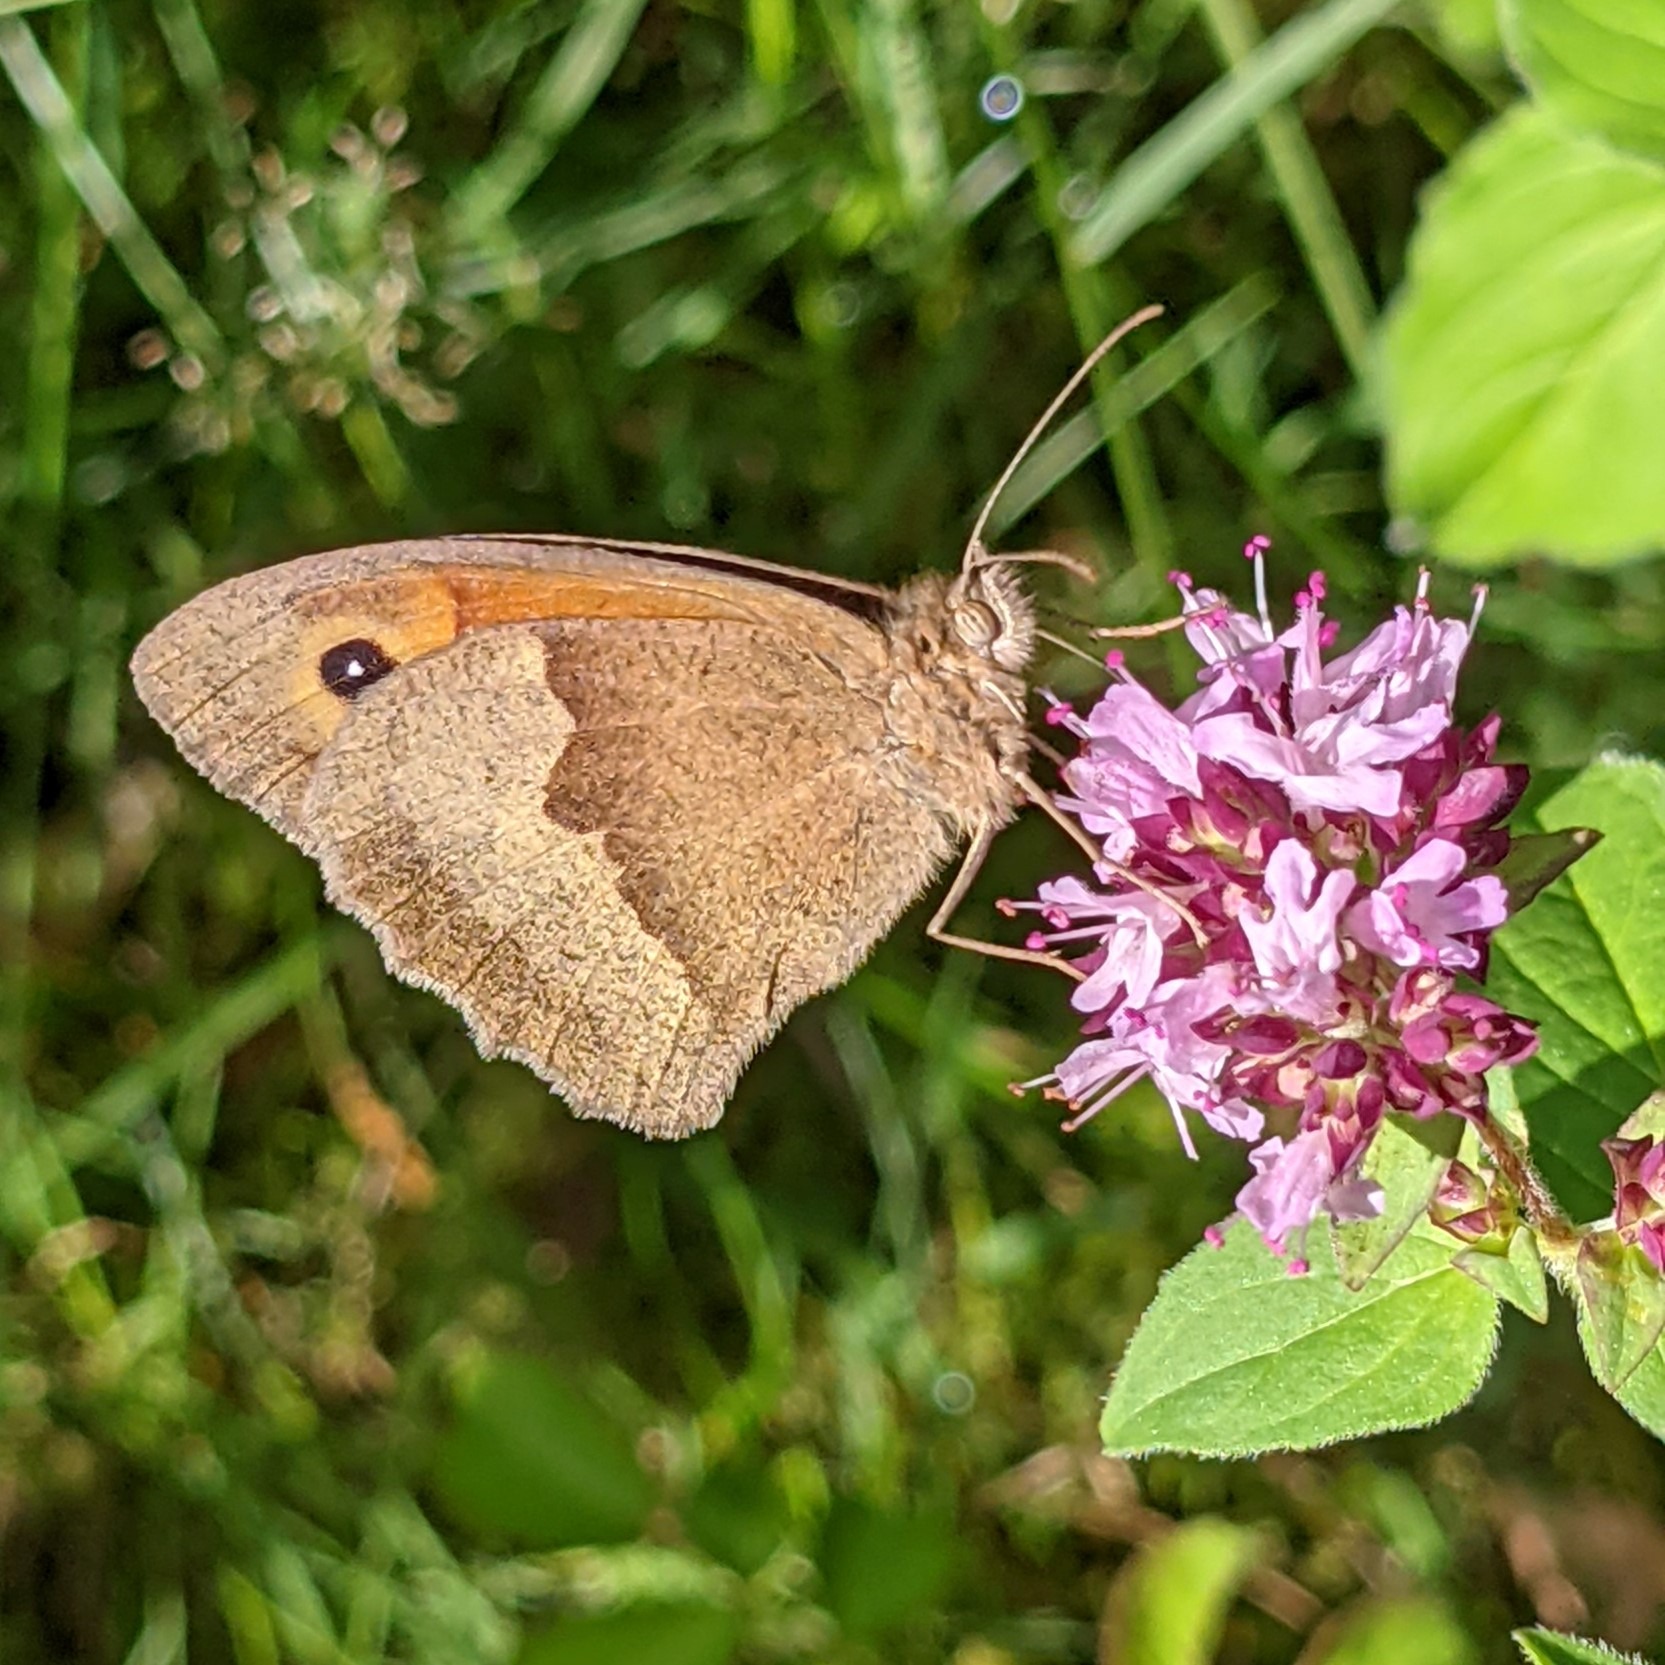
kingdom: Animalia
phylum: Arthropoda
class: Insecta
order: Lepidoptera
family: Nymphalidae
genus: Maniola
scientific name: Maniola jurtina
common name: Græsrandøje
